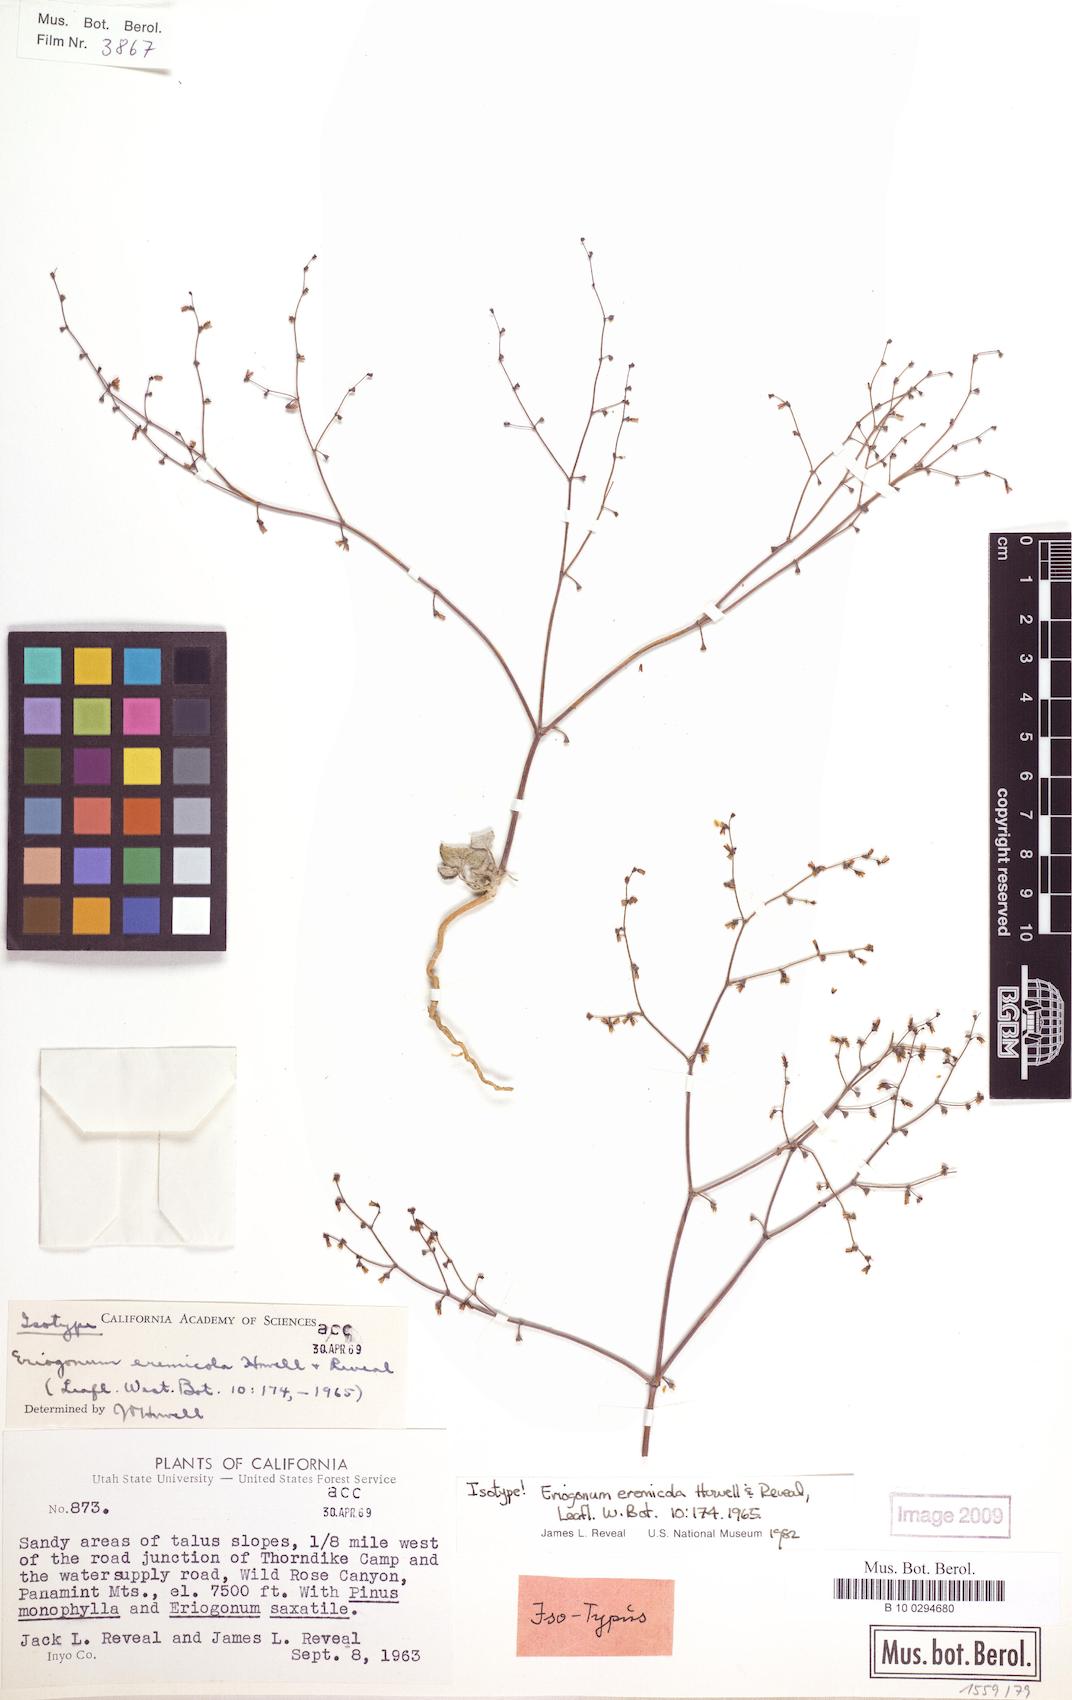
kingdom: Plantae
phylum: Tracheophyta
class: Magnoliopsida
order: Caryophyllales
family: Polygonaceae
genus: Eriogonum
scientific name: Eriogonum eremicola
